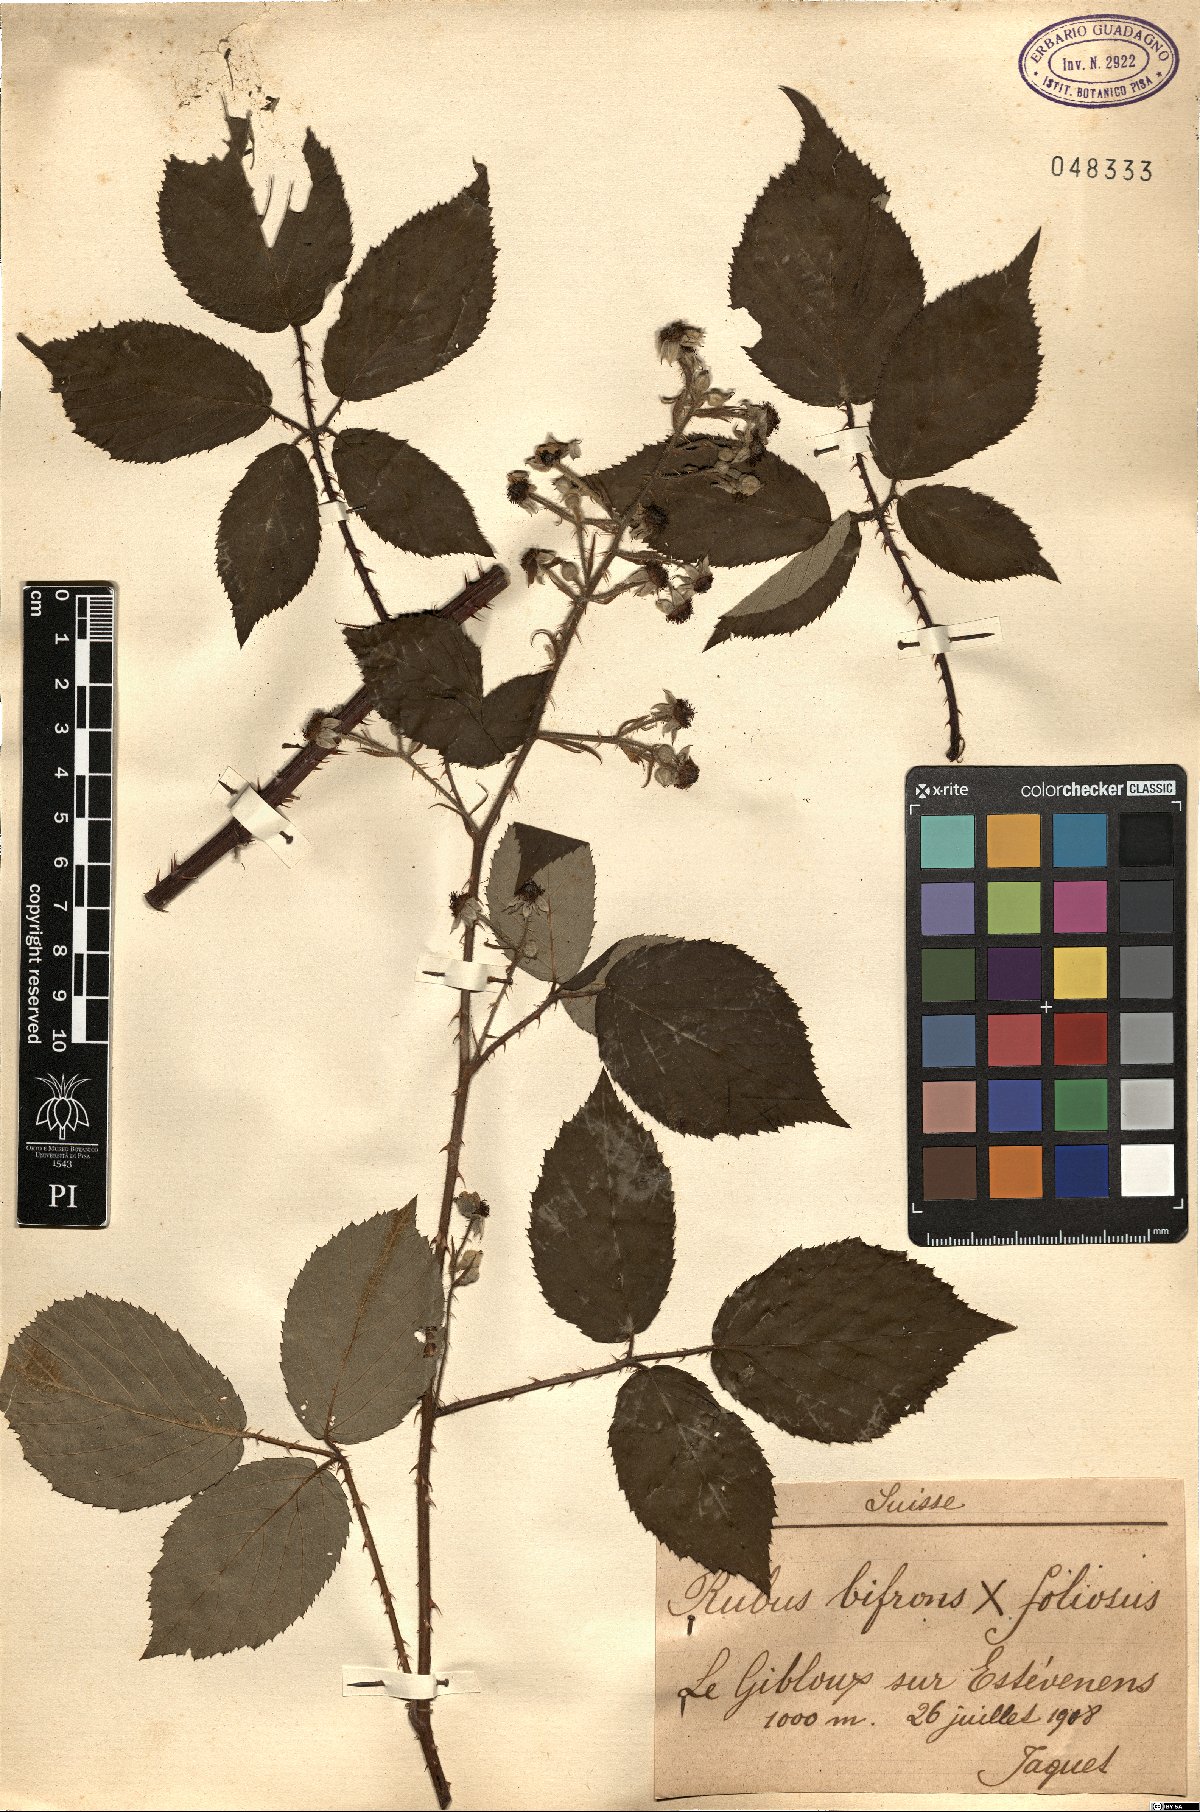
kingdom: Plantae
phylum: Tracheophyta
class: Magnoliopsida
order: Rosales
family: Rosaceae
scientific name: Rosaceae
